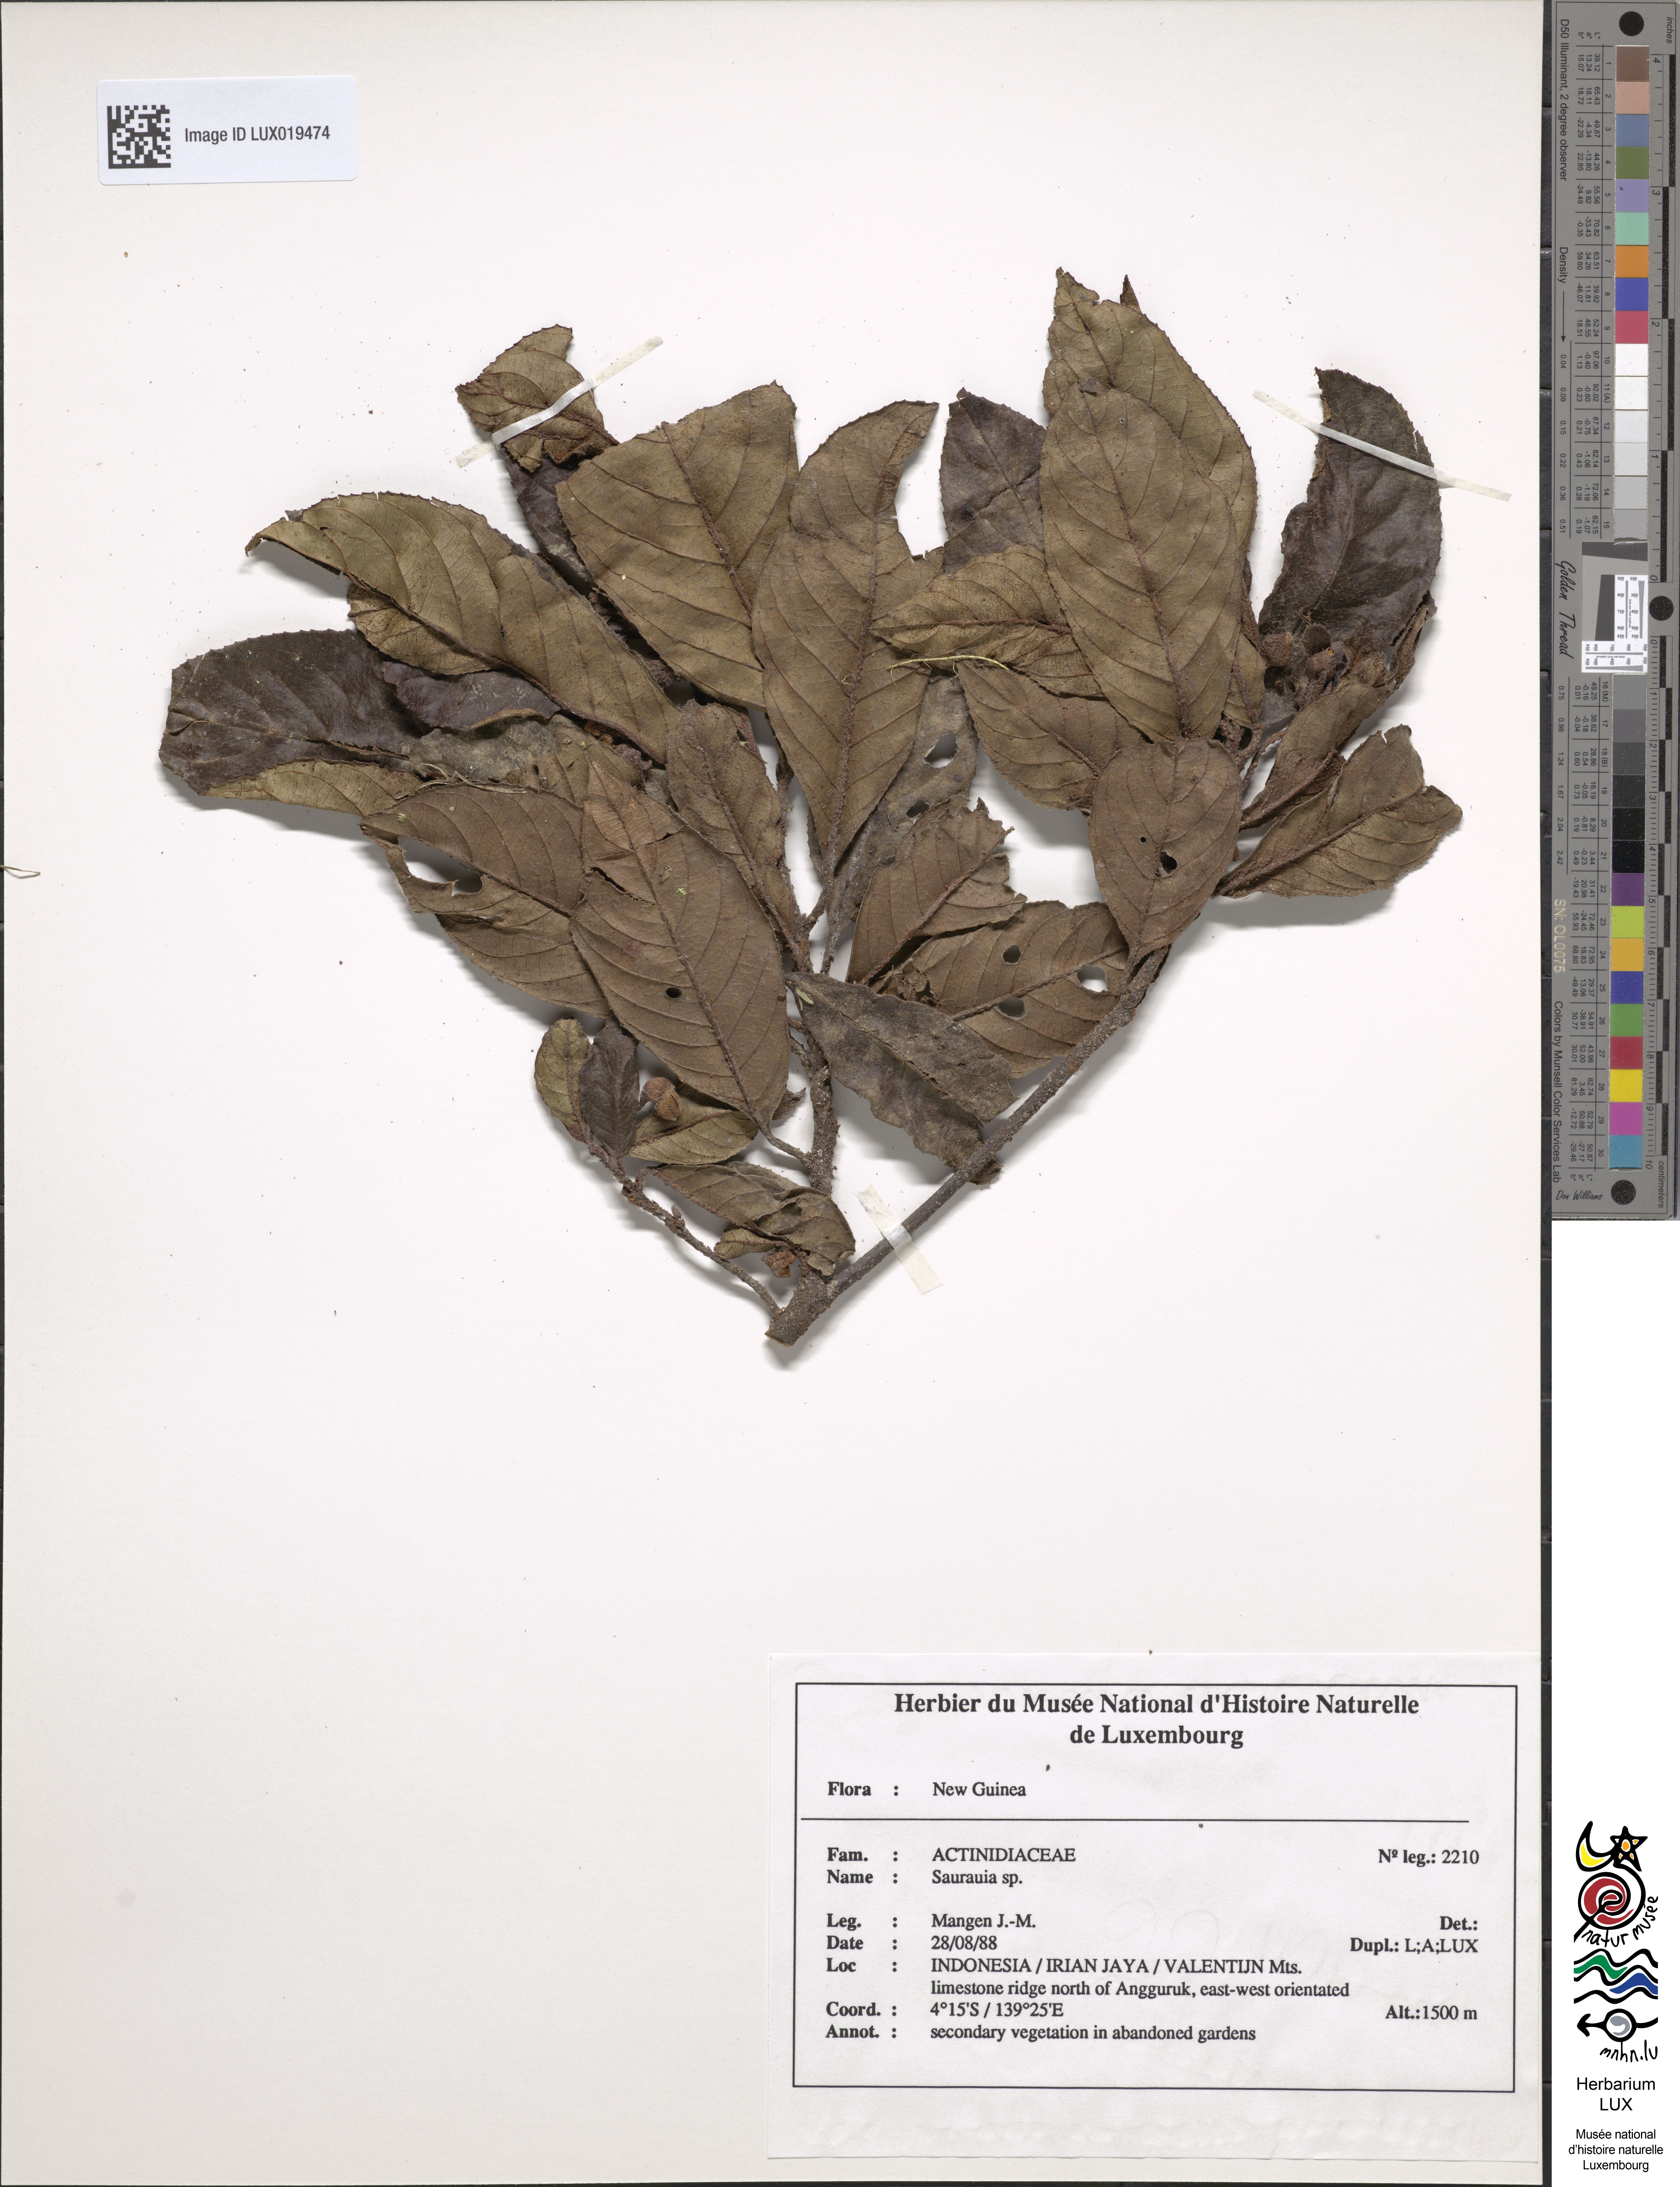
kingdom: Plantae
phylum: Tracheophyta
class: Magnoliopsida
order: Ericales
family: Actinidiaceae
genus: Saurauia
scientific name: Saurauia
